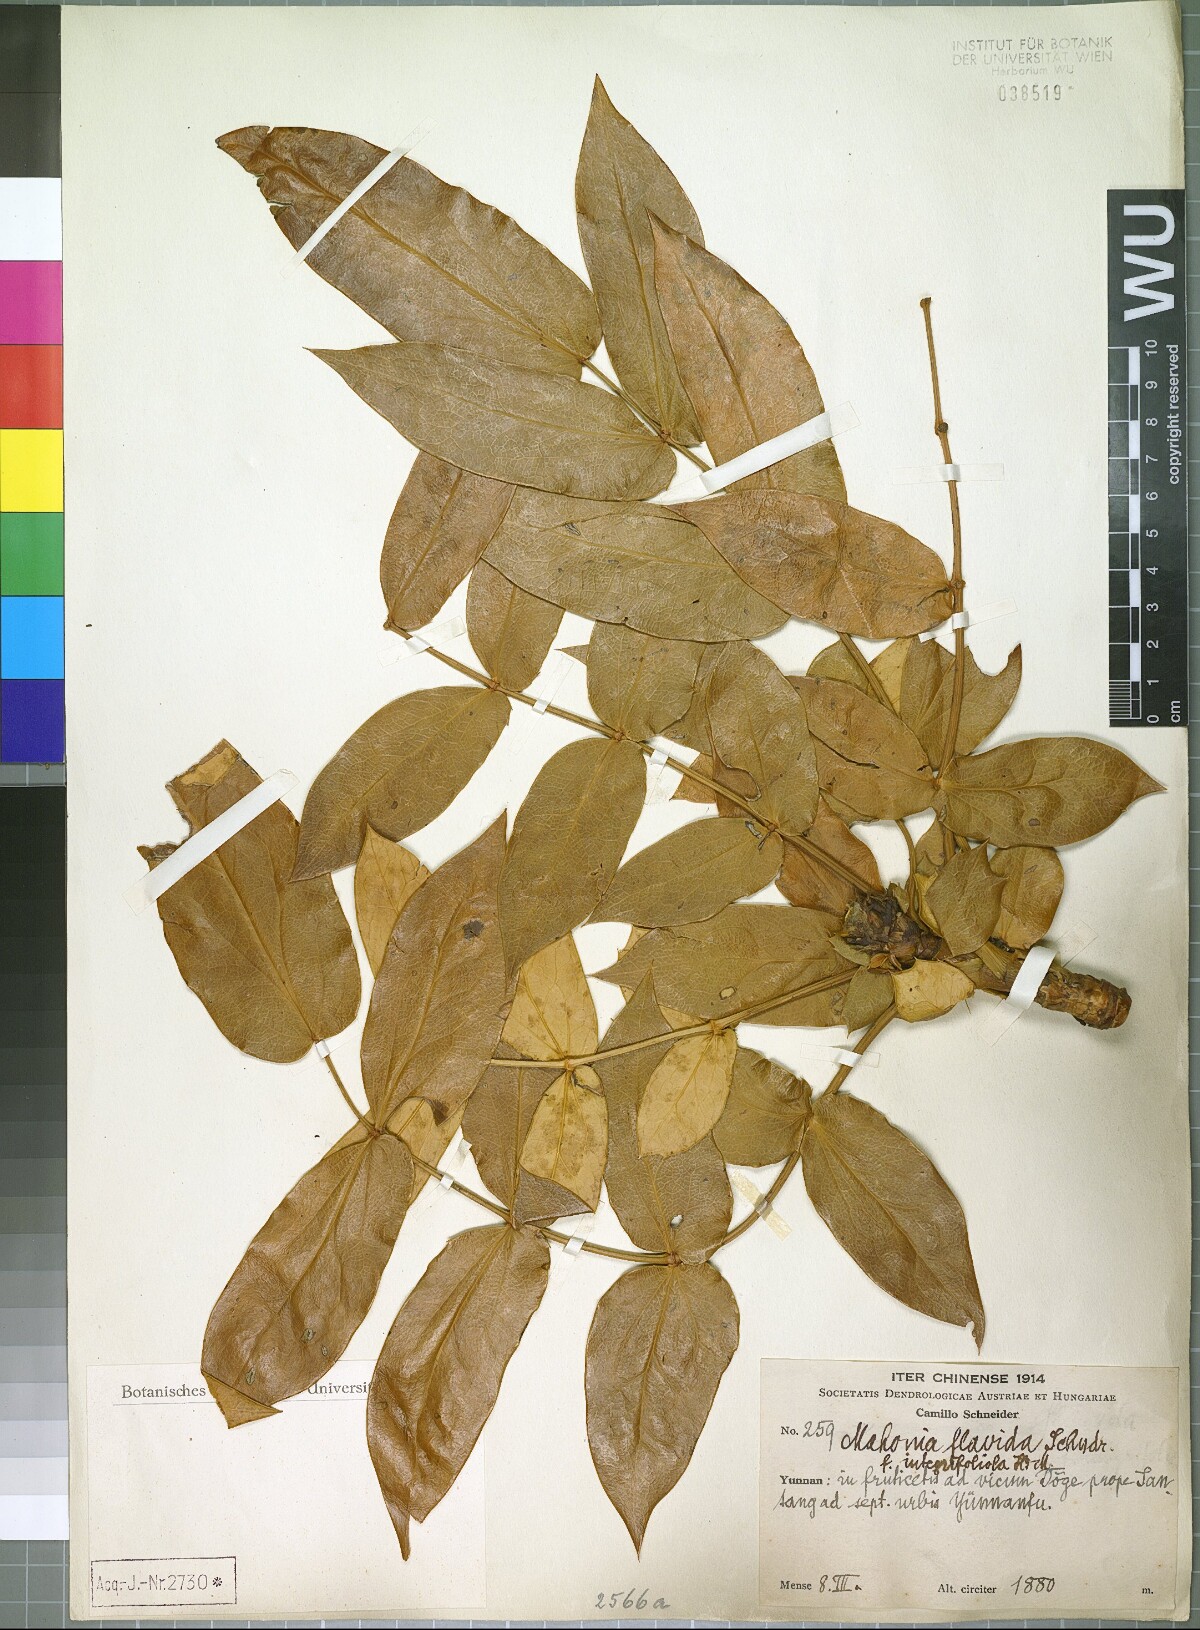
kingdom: Plantae
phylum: Tracheophyta
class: Magnoliopsida
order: Ranunculales
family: Berberidaceae
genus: Mahonia
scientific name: Mahonia napaulensis
